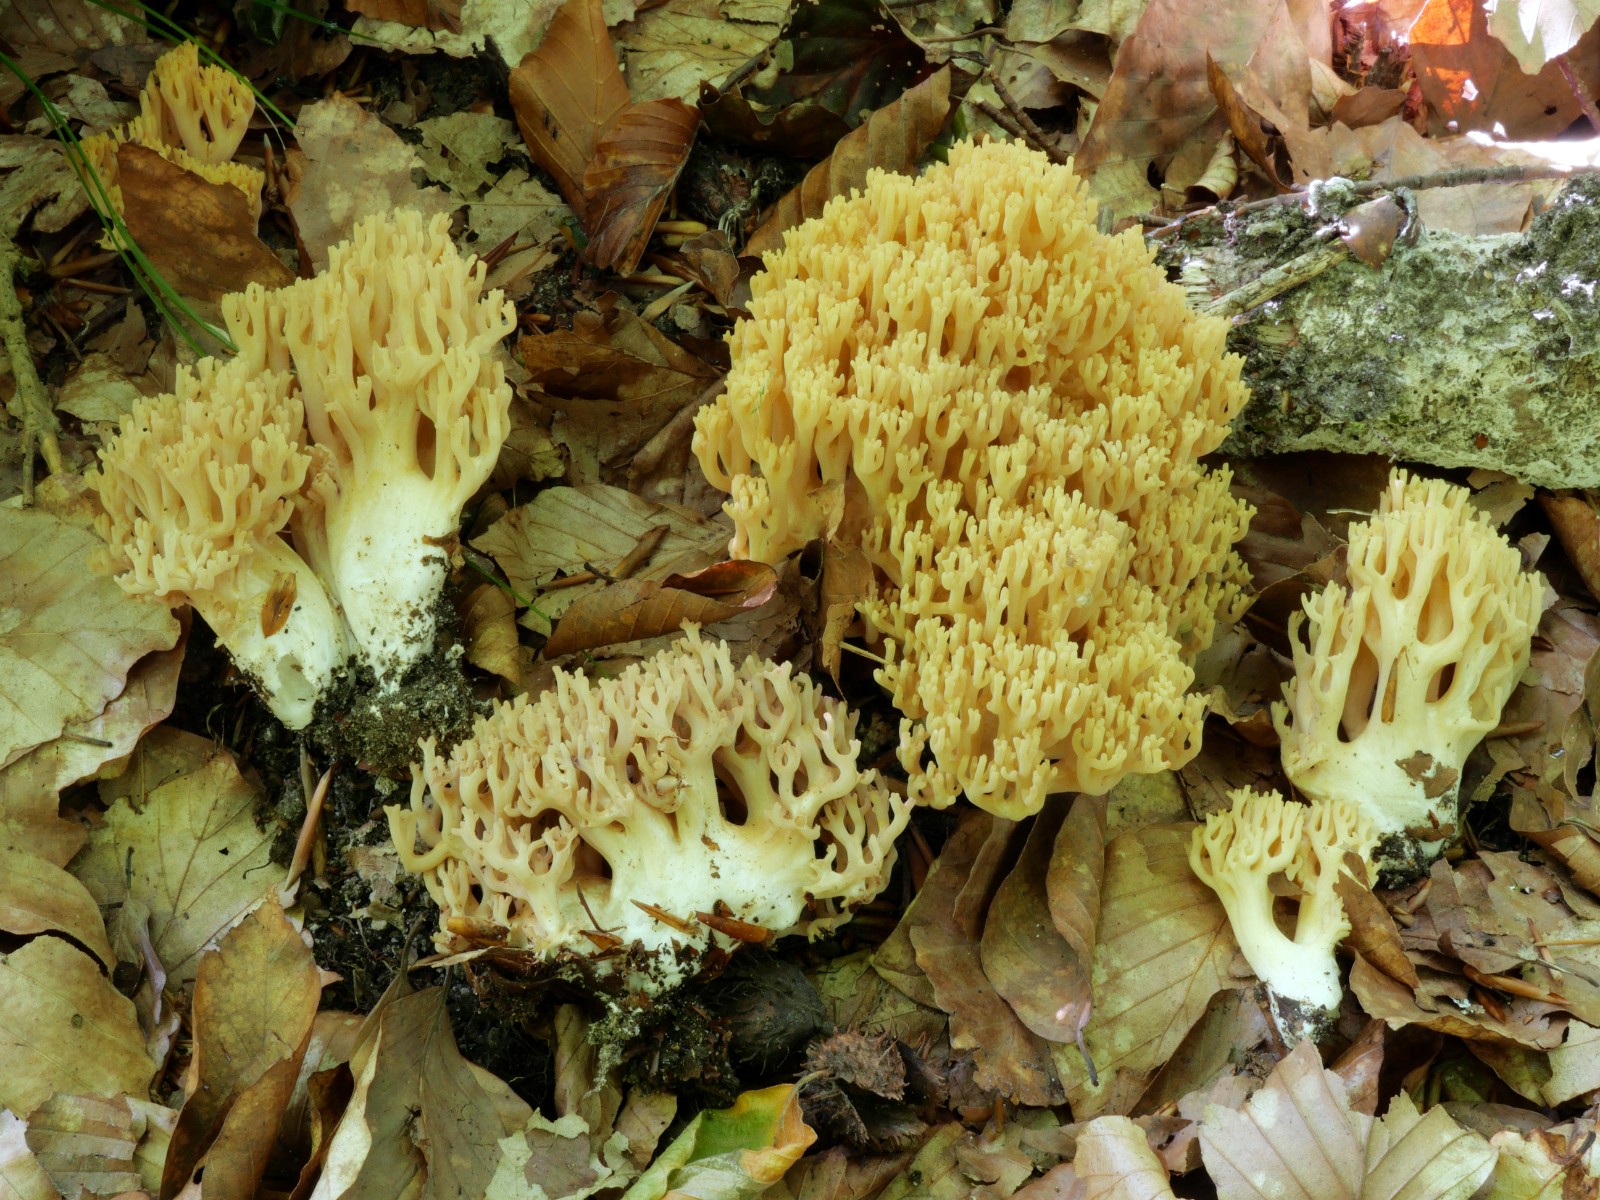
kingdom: Fungi
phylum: Basidiomycota
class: Agaricomycetes
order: Gomphales
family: Gomphaceae
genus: Ramaria
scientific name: Ramaria krieglsteineri
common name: smalsporet koralsvamp
